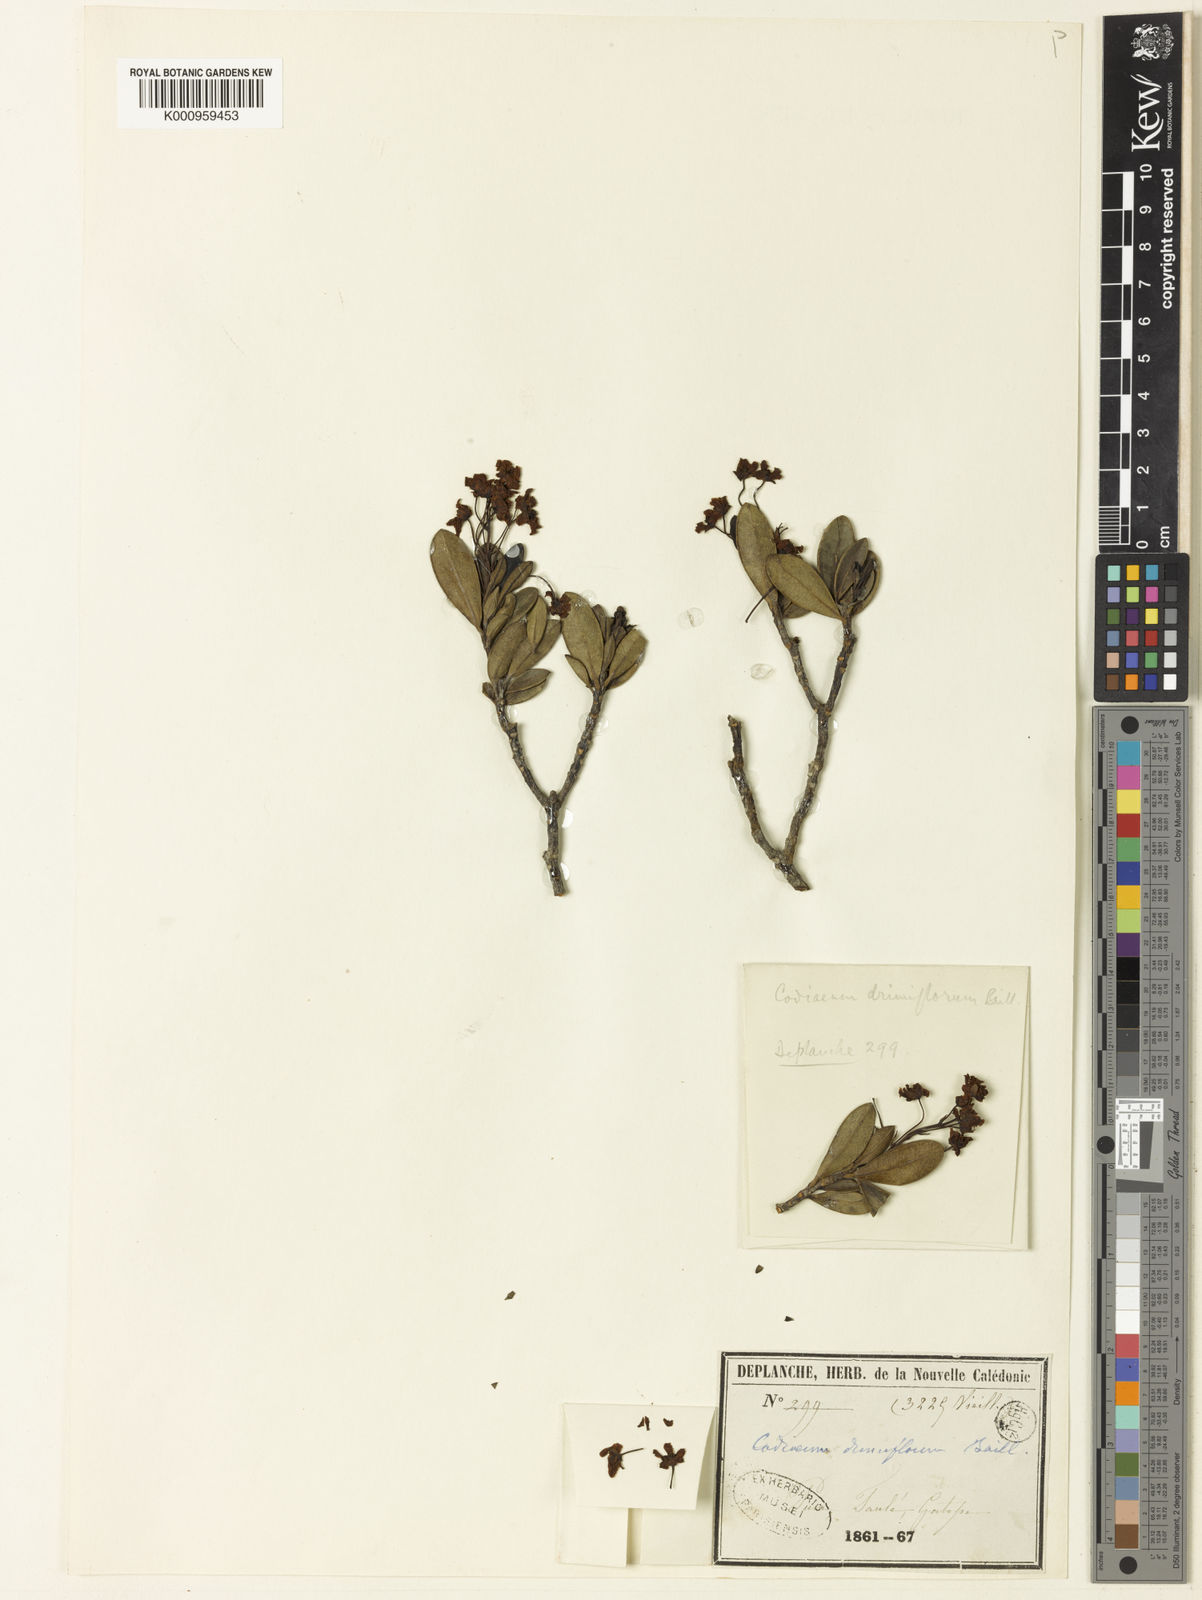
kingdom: Plantae
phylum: Tracheophyta
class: Magnoliopsida
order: Malpighiales
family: Euphorbiaceae
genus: Baloghia
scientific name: Baloghia drimiflora
